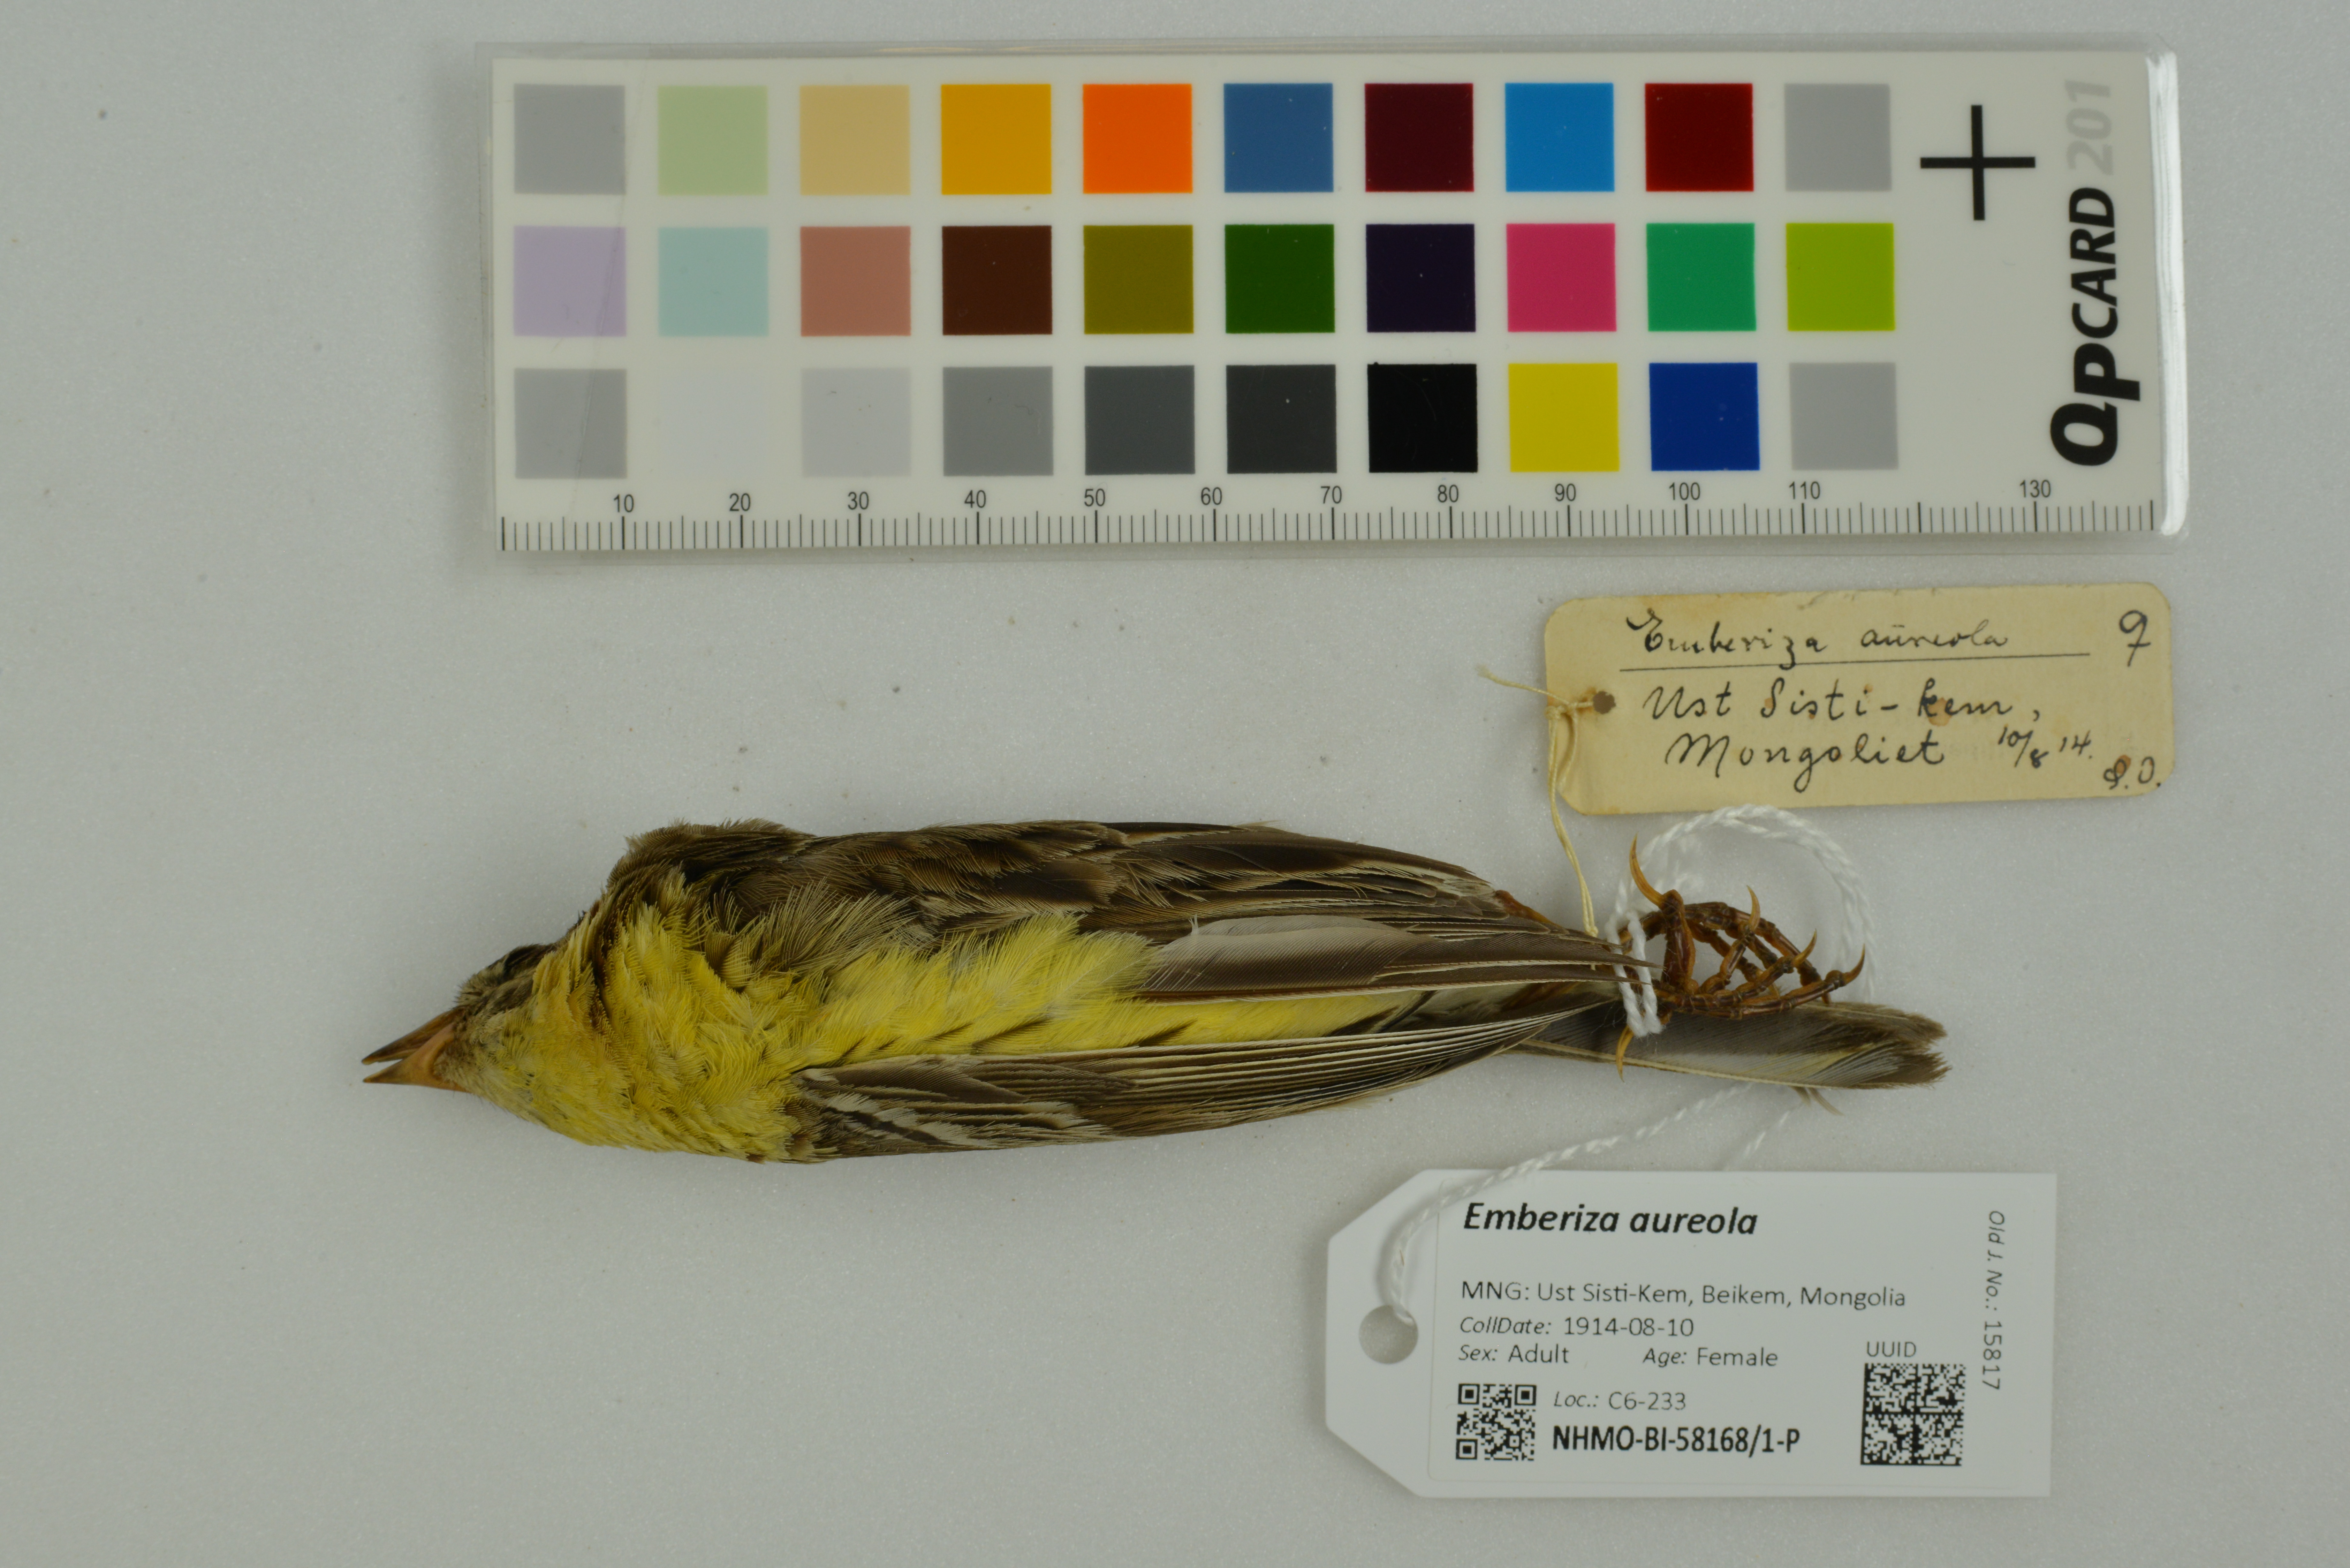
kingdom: Animalia
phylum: Chordata
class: Aves
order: Passeriformes
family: Emberizidae
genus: Emberiza
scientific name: Emberiza aureola
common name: Yellow-breasted bunting
